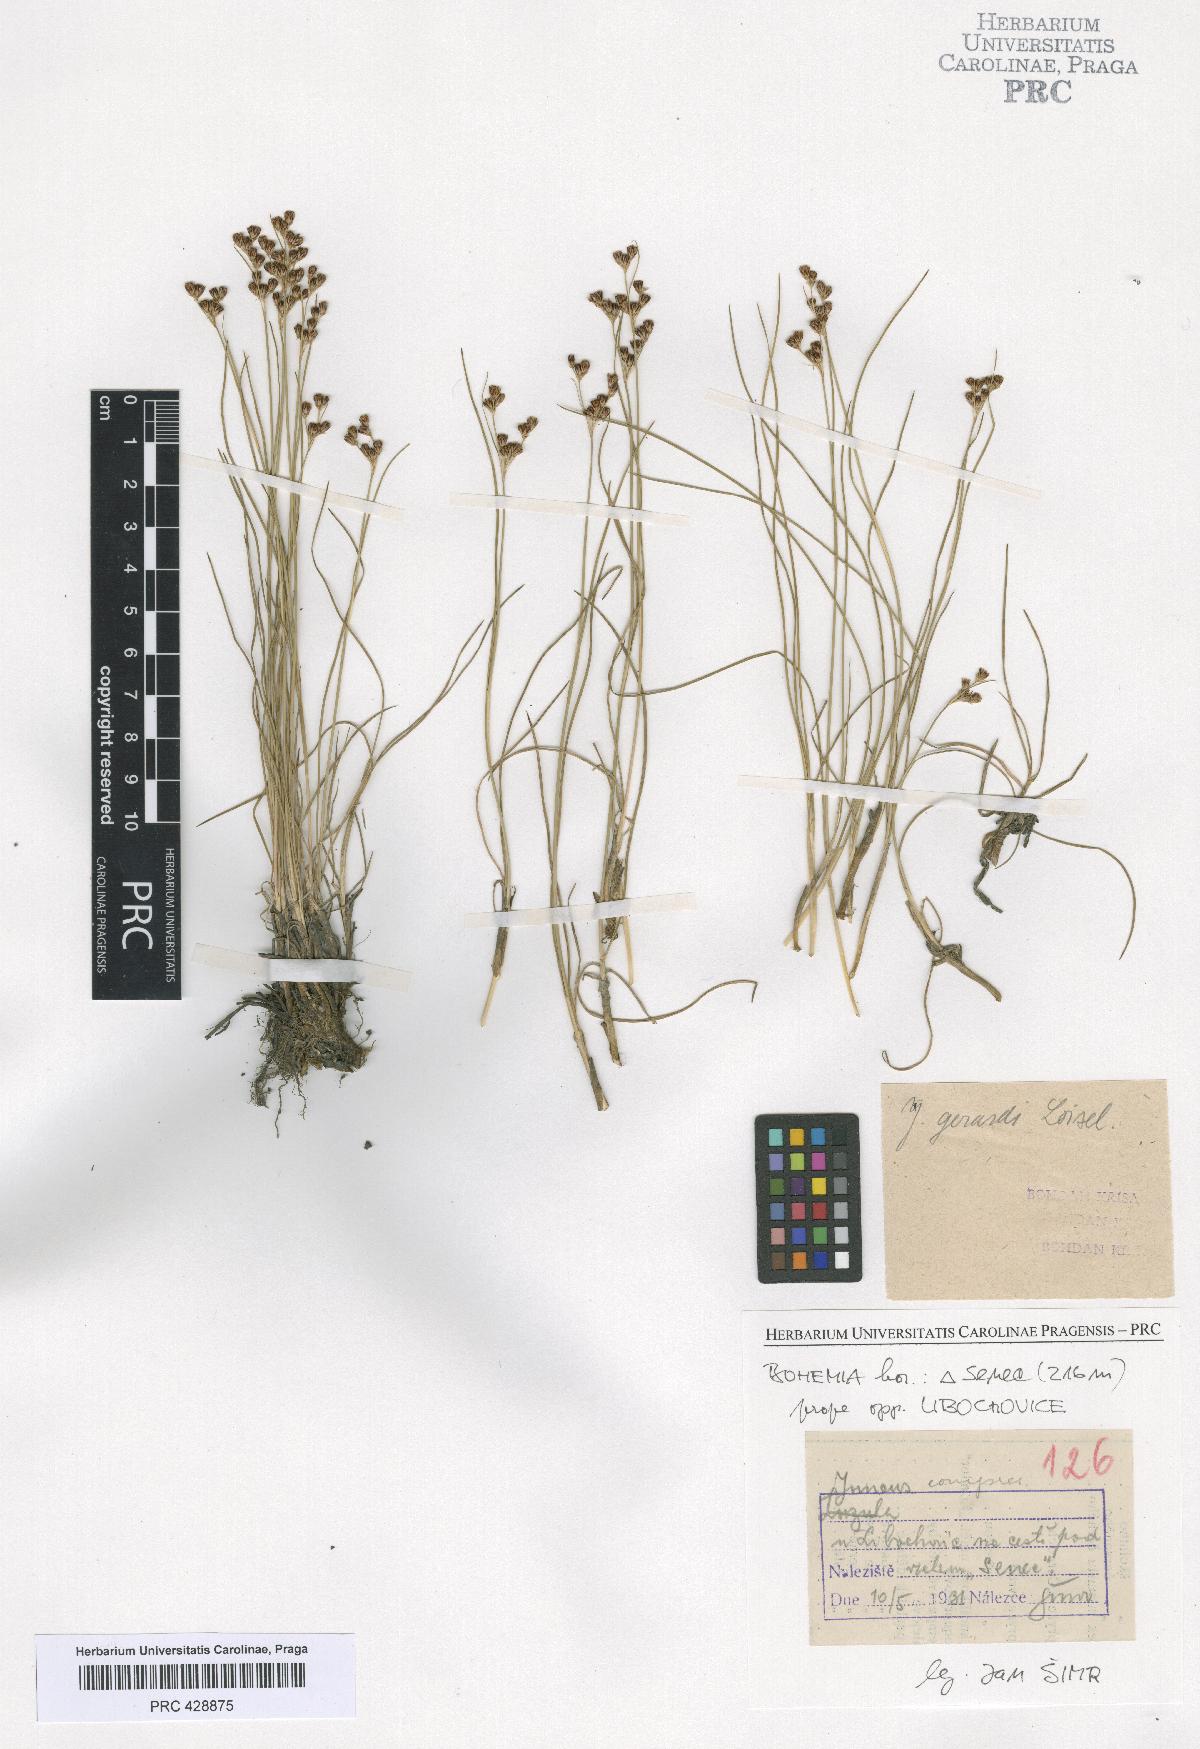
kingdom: Plantae
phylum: Tracheophyta
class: Liliopsida
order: Poales
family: Juncaceae
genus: Juncus
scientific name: Juncus gerardi
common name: Saltmarsh rush
